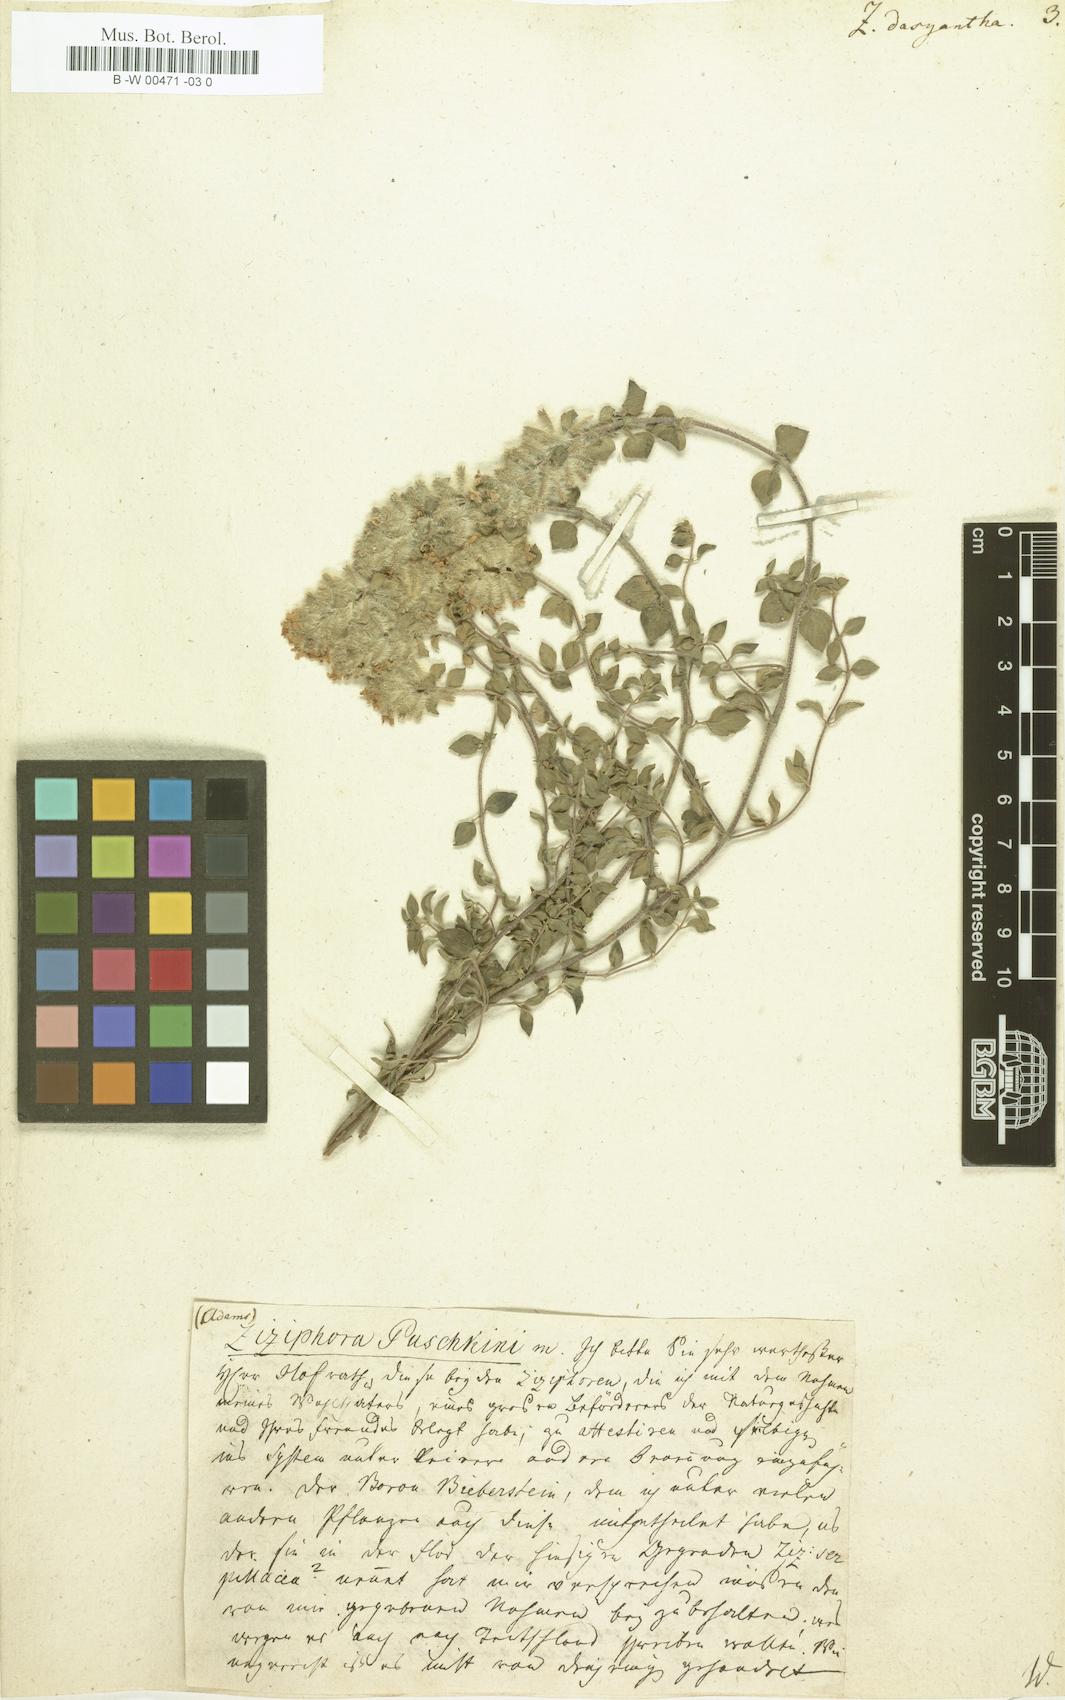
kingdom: Plantae
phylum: Tracheophyta
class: Magnoliopsida
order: Lamiales
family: Lamiaceae
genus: Ziziphora
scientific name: Ziziphora clinopodioides
